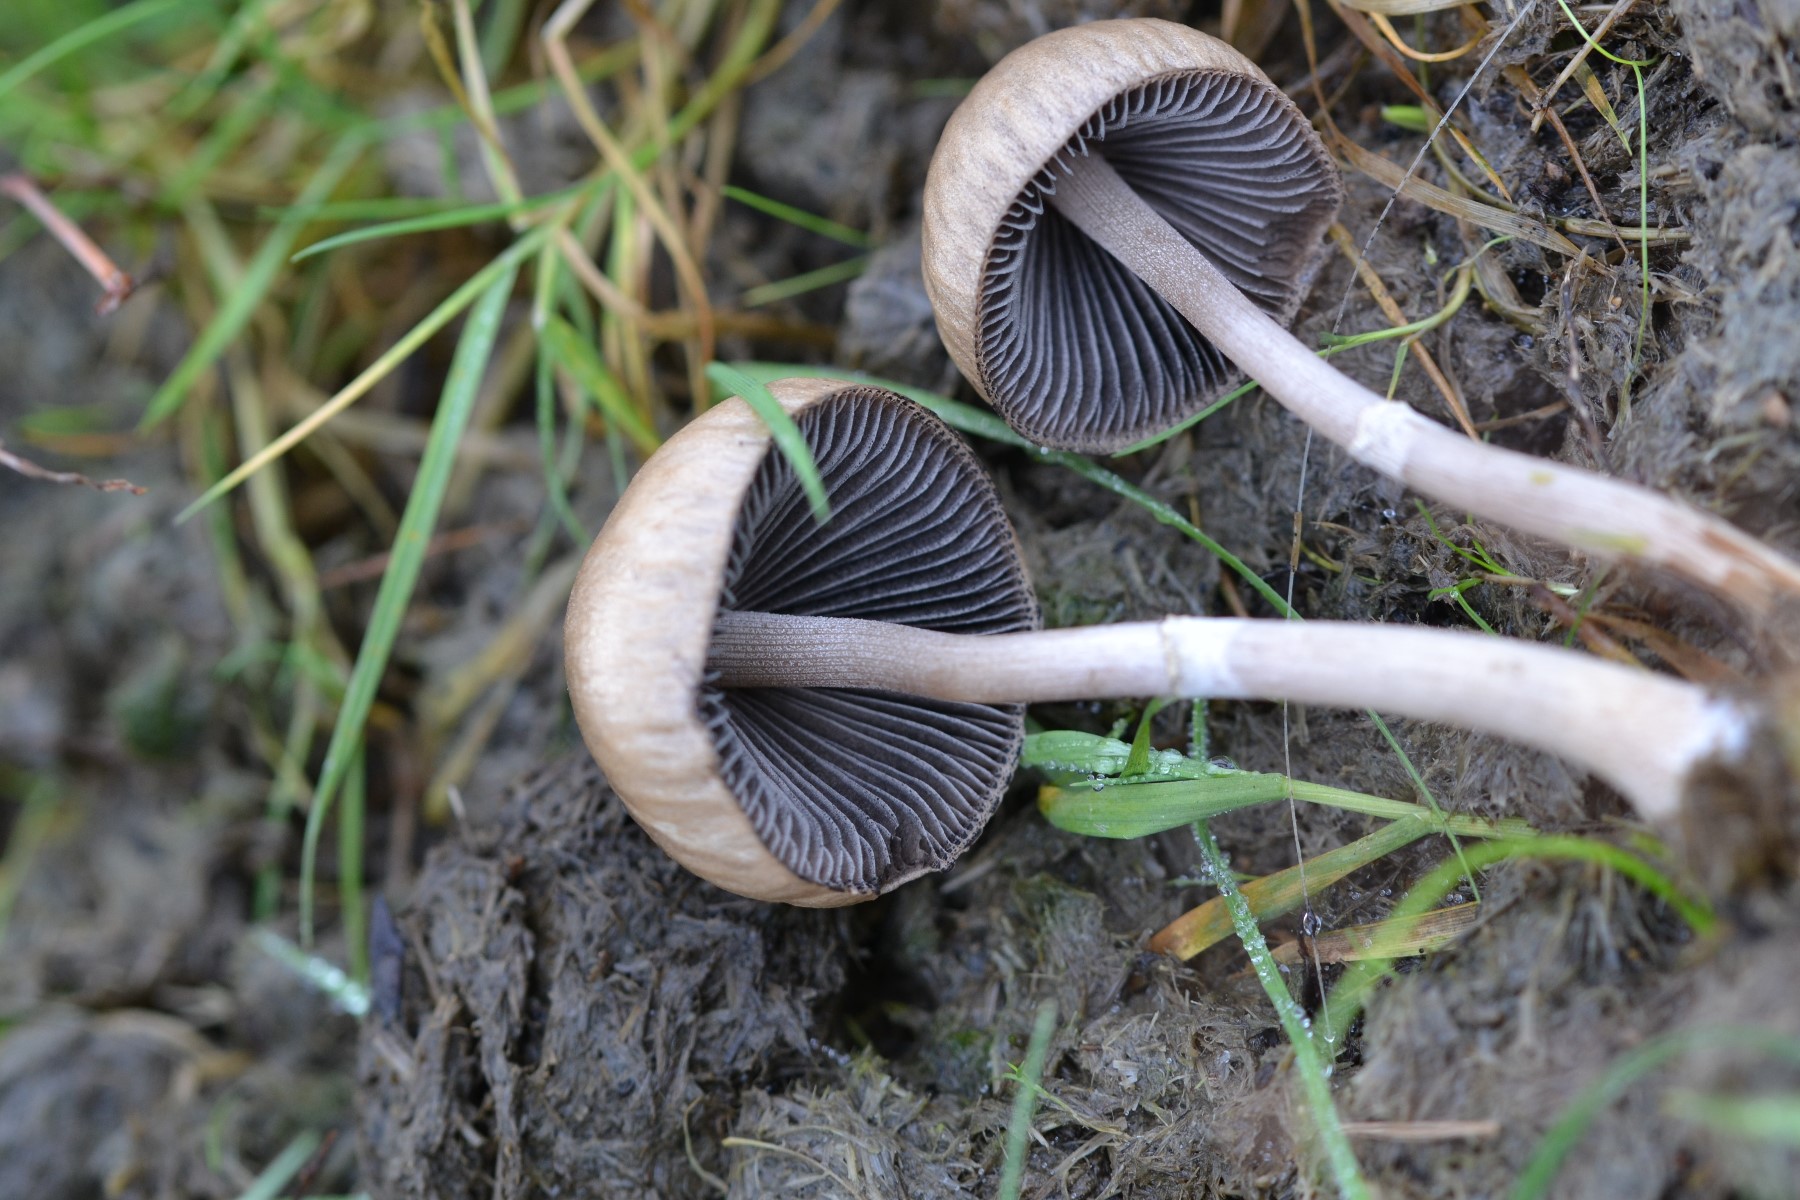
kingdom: Fungi
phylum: Basidiomycota
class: Agaricomycetes
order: Agaricales
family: Bolbitiaceae
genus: Panaeolus
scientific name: Panaeolus semiovatus
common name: ring-glanshat
